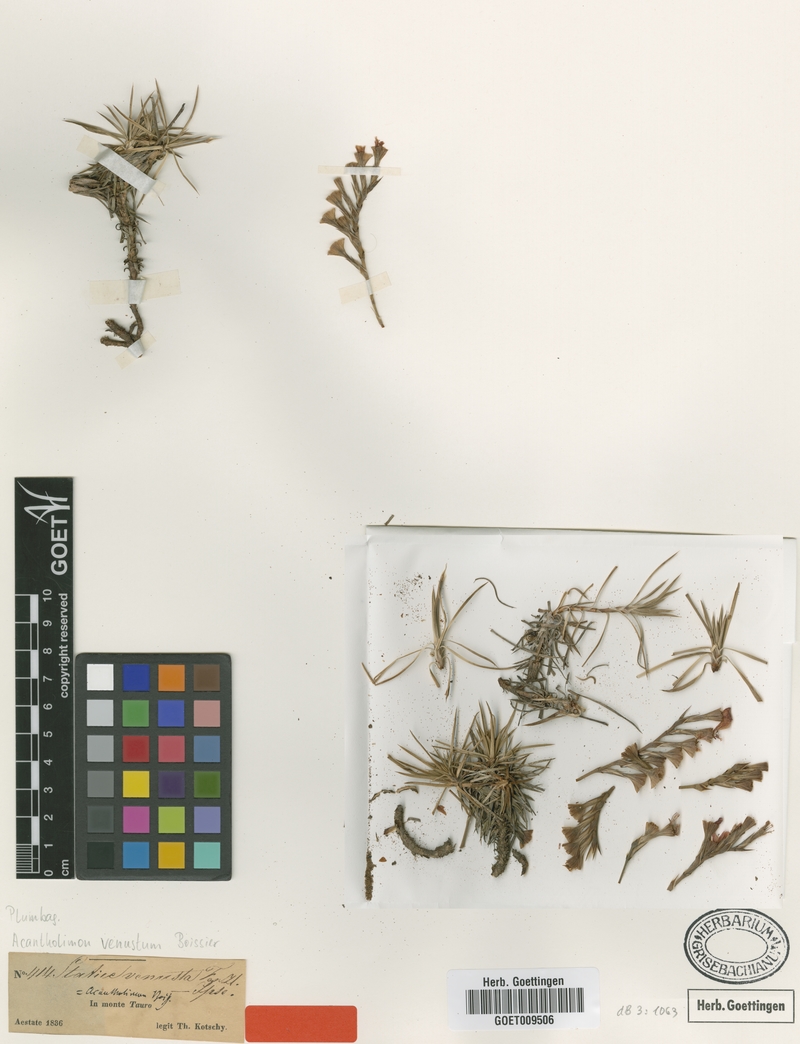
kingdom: Plantae
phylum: Tracheophyta
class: Magnoliopsida
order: Caryophyllales
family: Plumbaginaceae
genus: Acantholimon
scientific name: Acantholimon venustum
